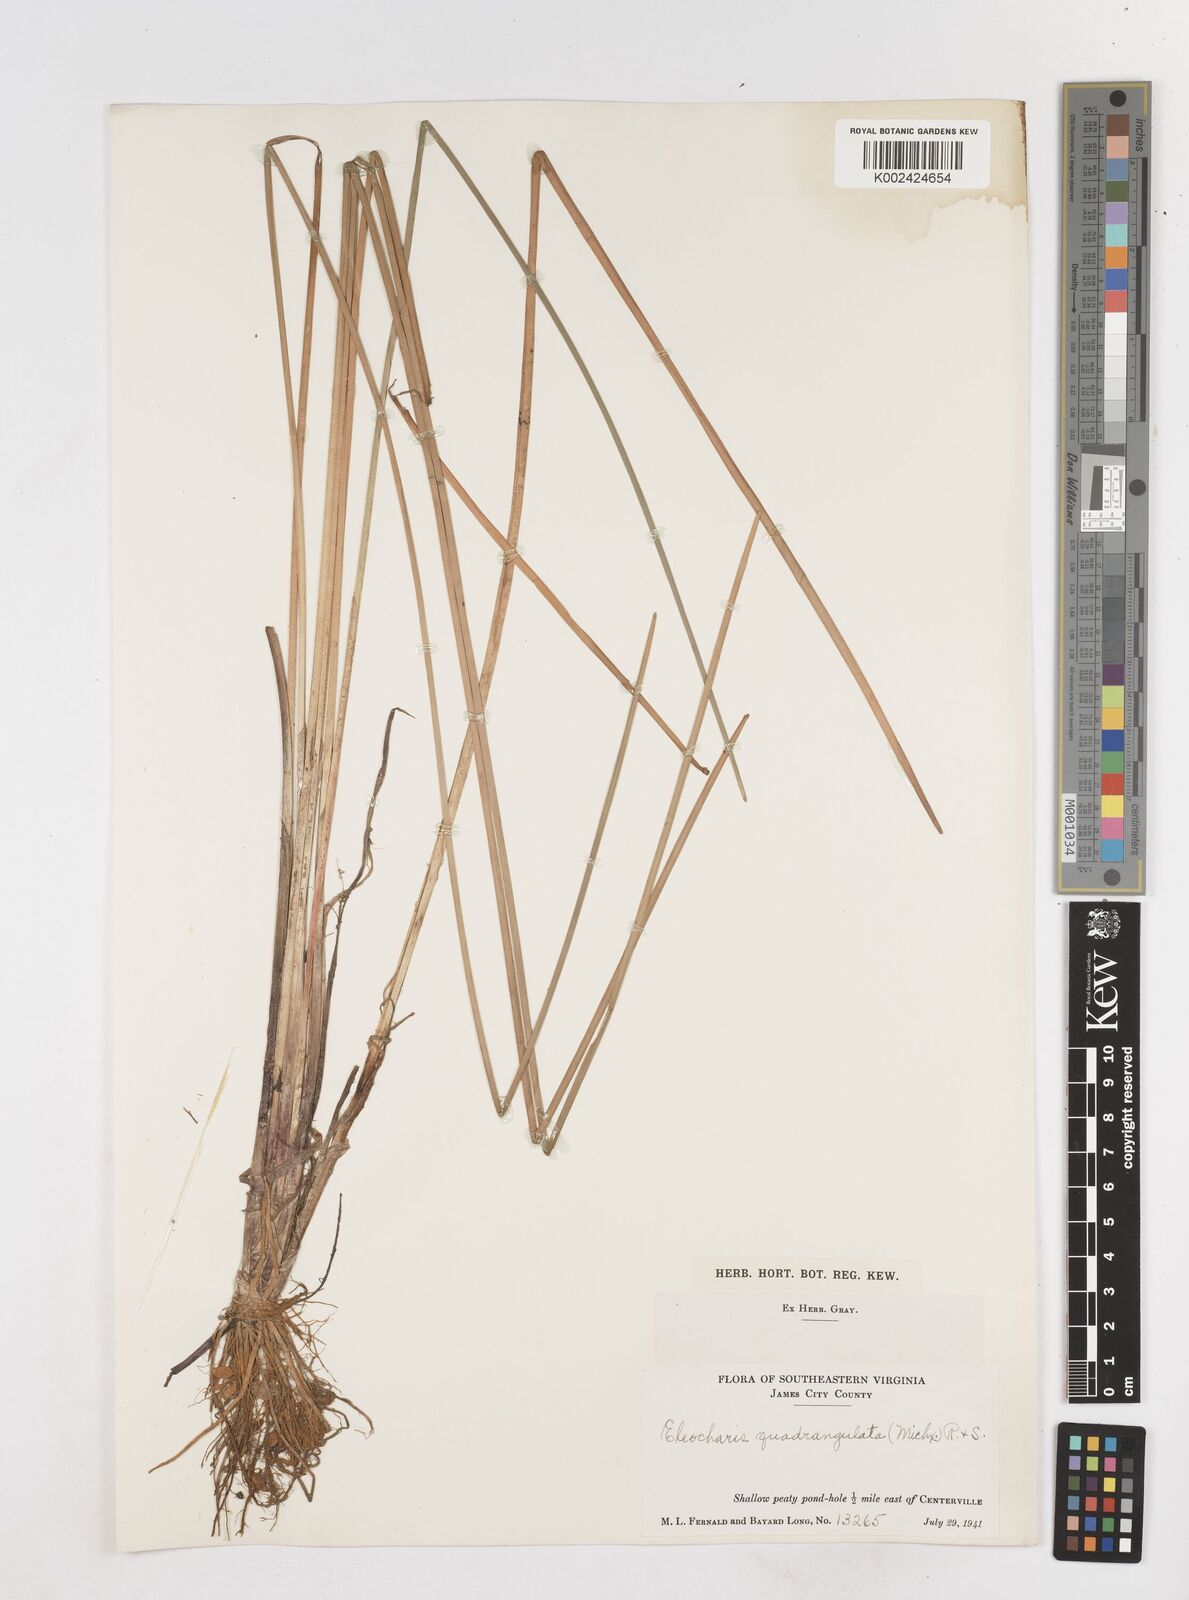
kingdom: Plantae
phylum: Tracheophyta
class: Liliopsida
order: Poales
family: Cyperaceae
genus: Eleocharis
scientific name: Eleocharis mutata
